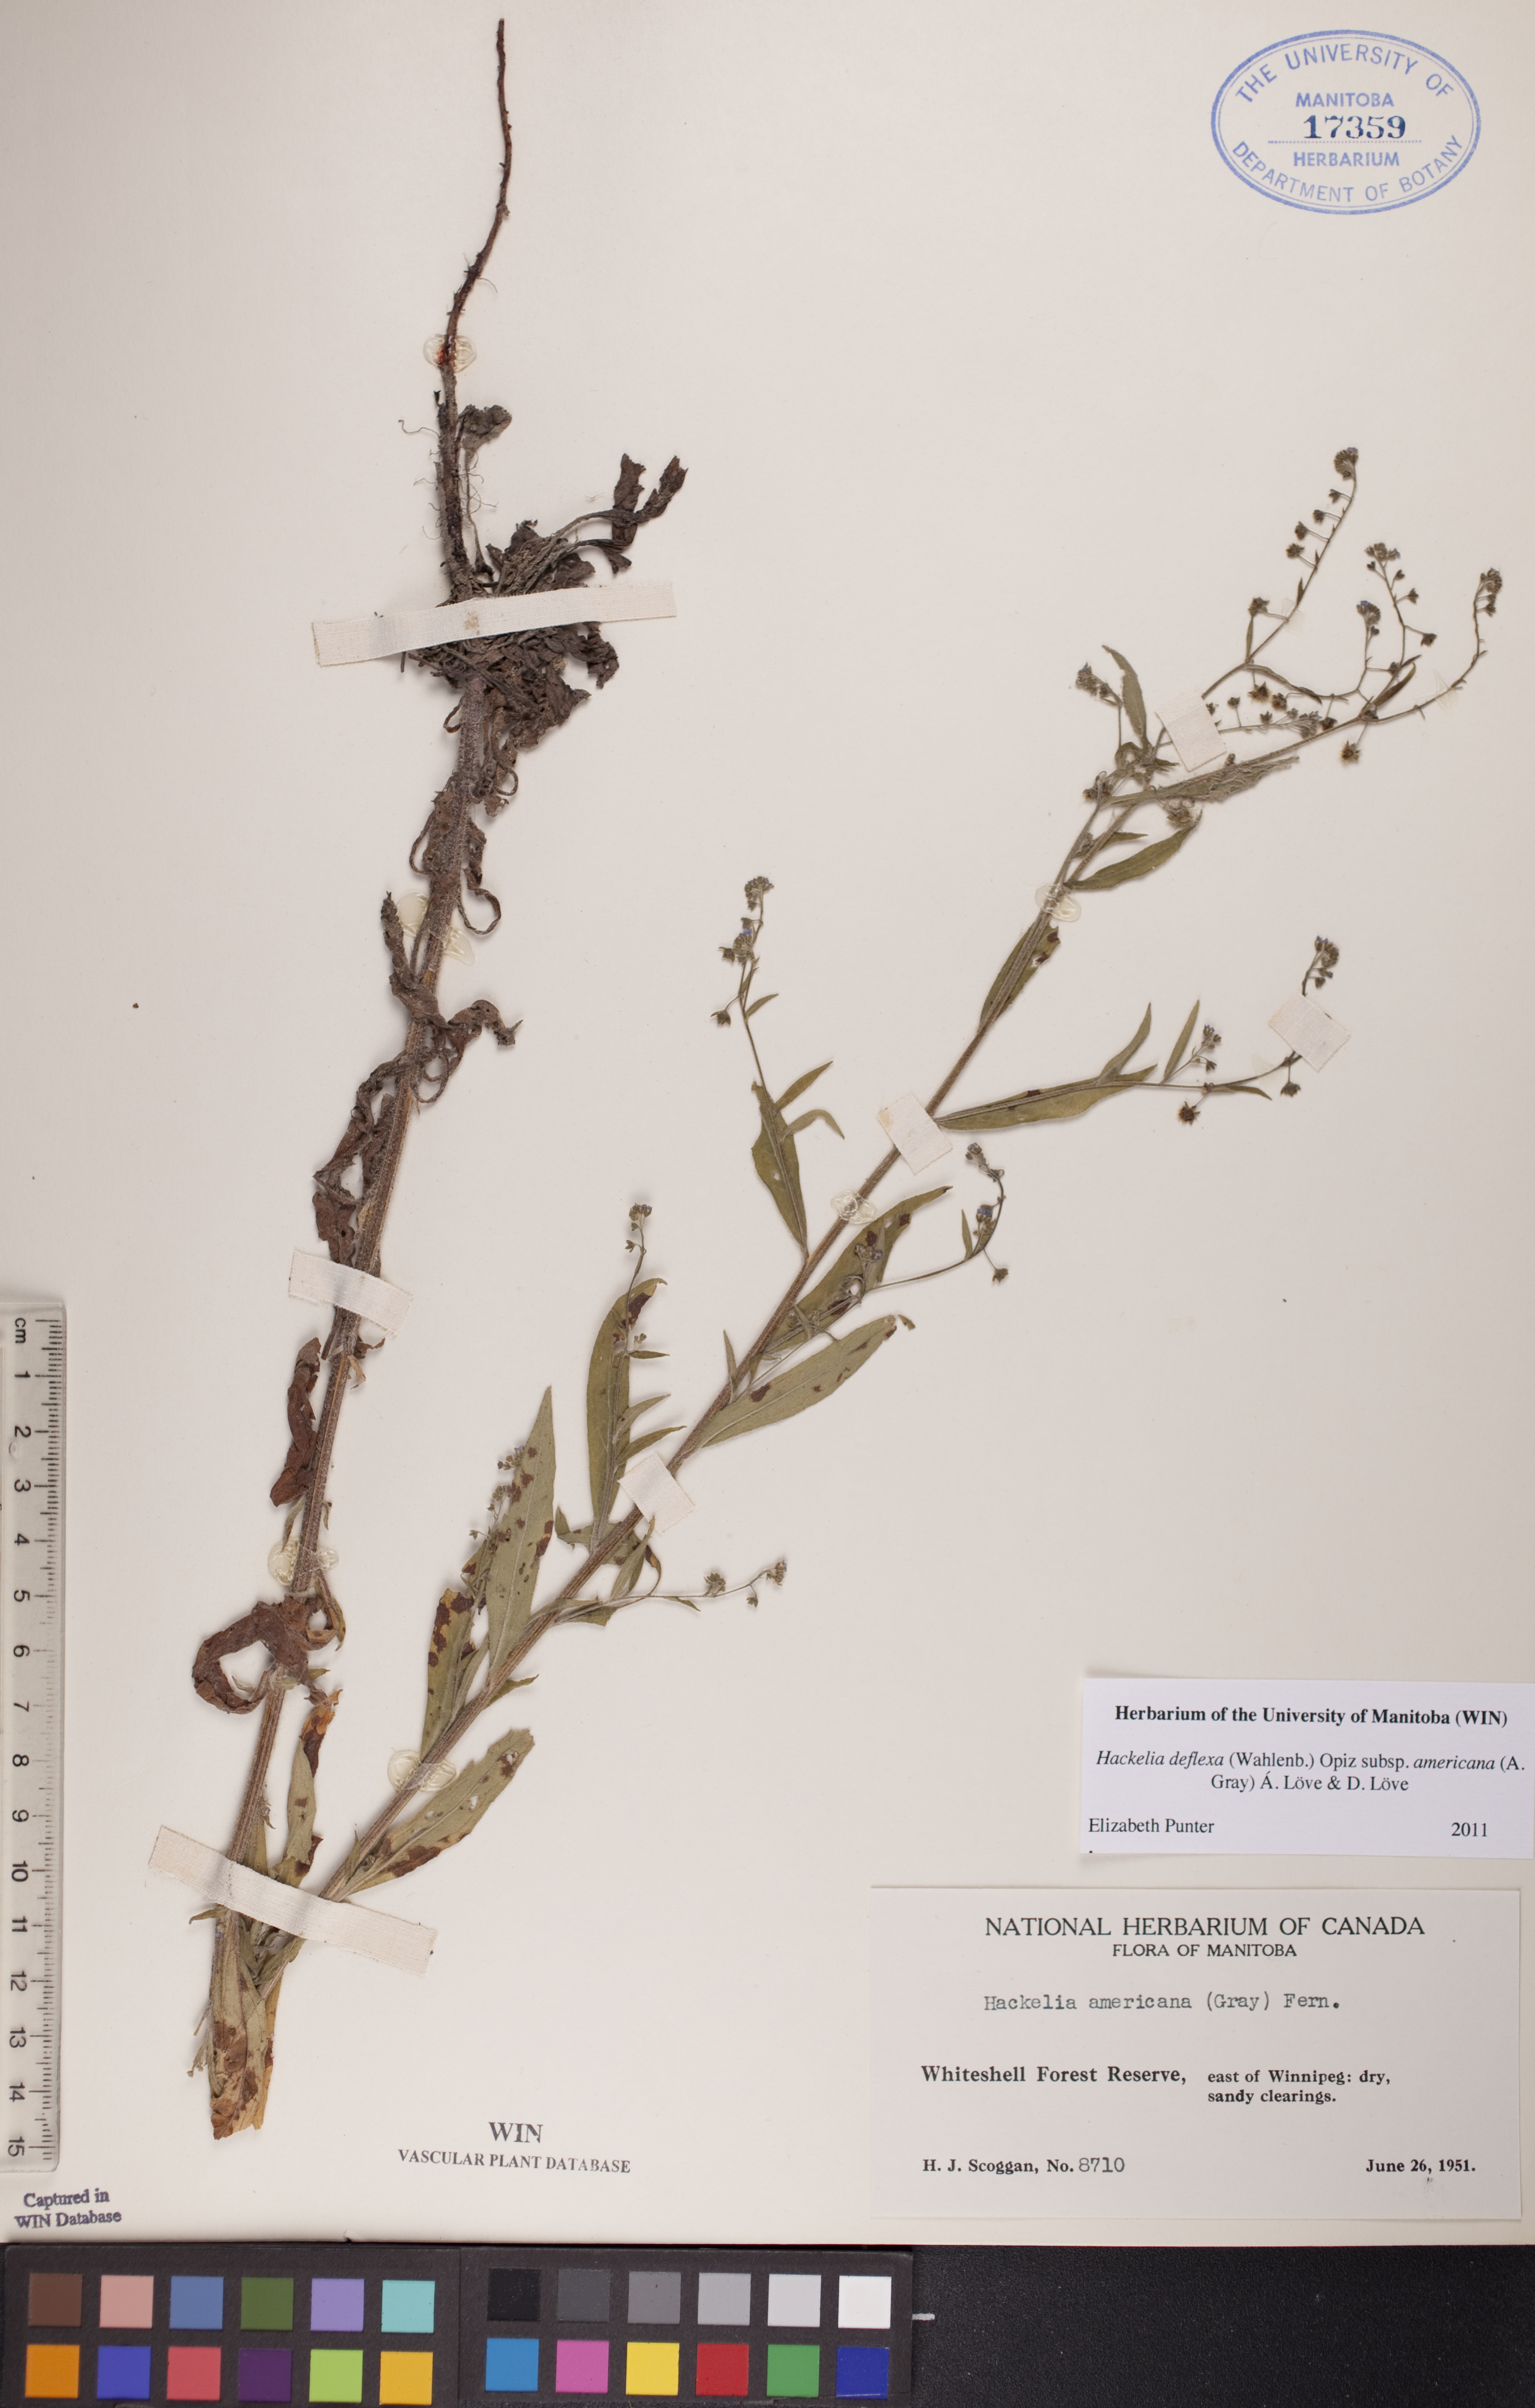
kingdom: Plantae
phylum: Tracheophyta
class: Magnoliopsida
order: Boraginales
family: Boraginaceae
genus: Hackelia
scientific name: Hackelia deflexa
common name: Nodding stickseed
